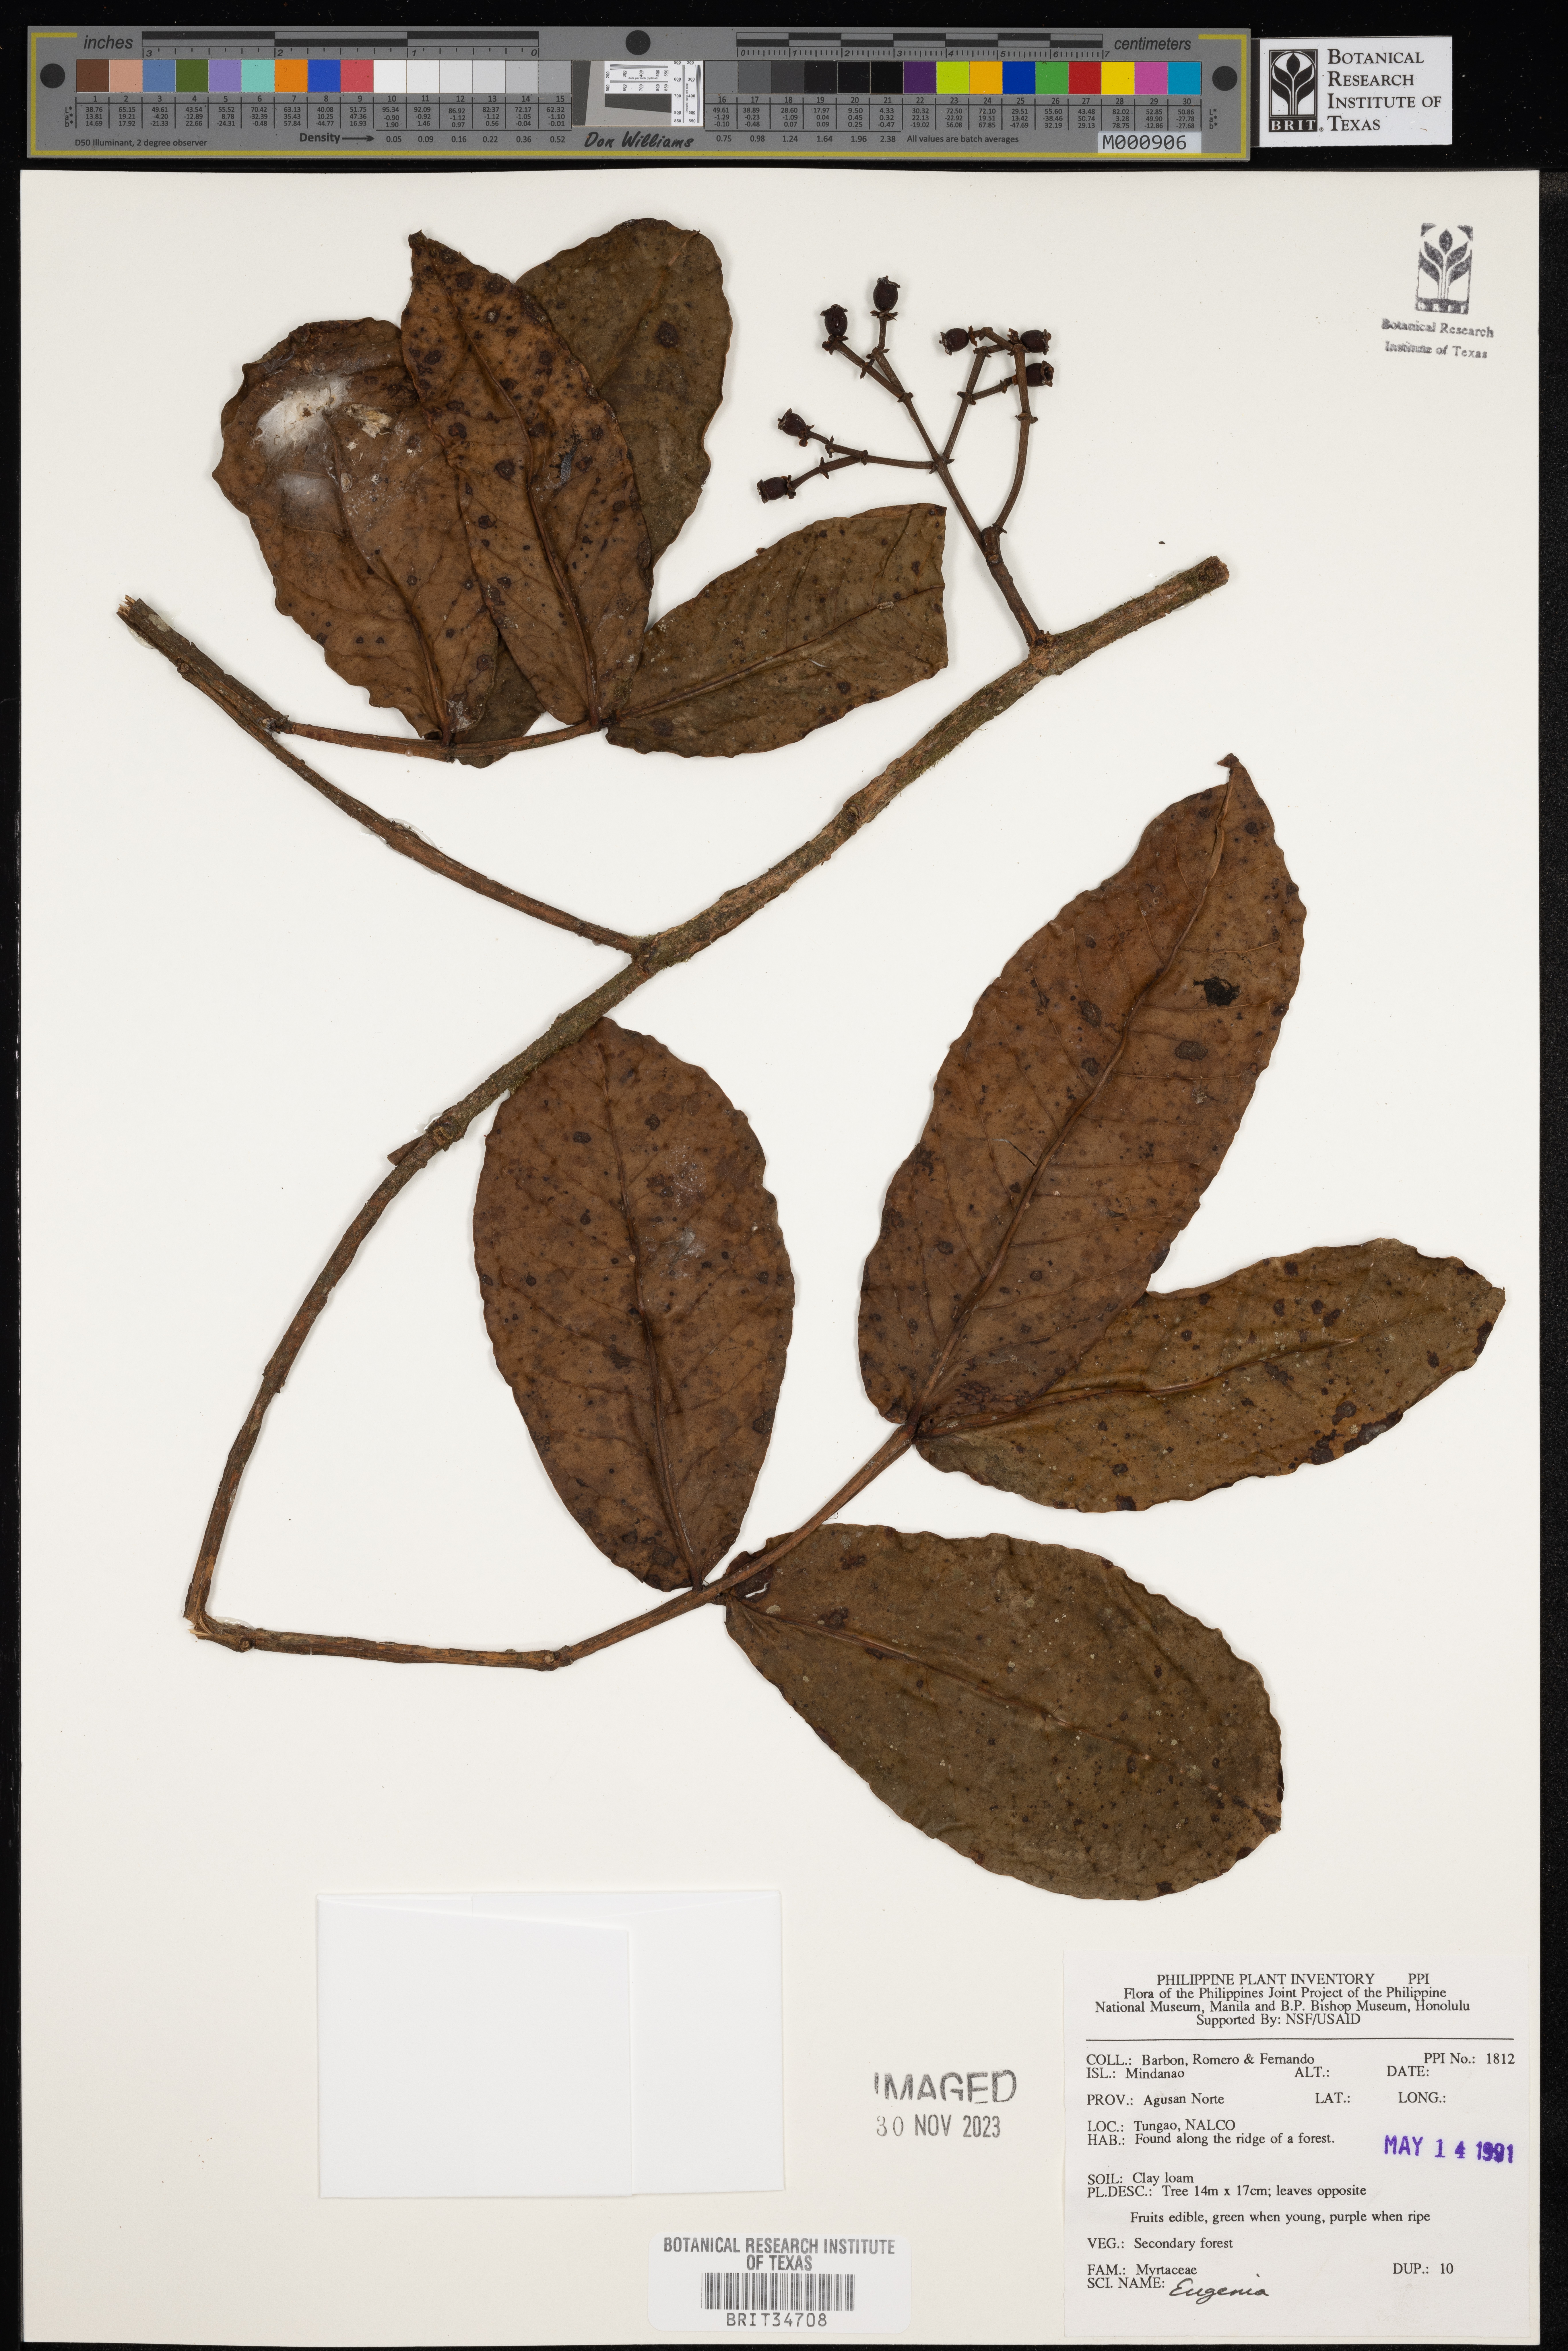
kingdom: Plantae
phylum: Tracheophyta
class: Magnoliopsida
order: Myrtales
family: Myrtaceae
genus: Eugenia
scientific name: Eugenia
